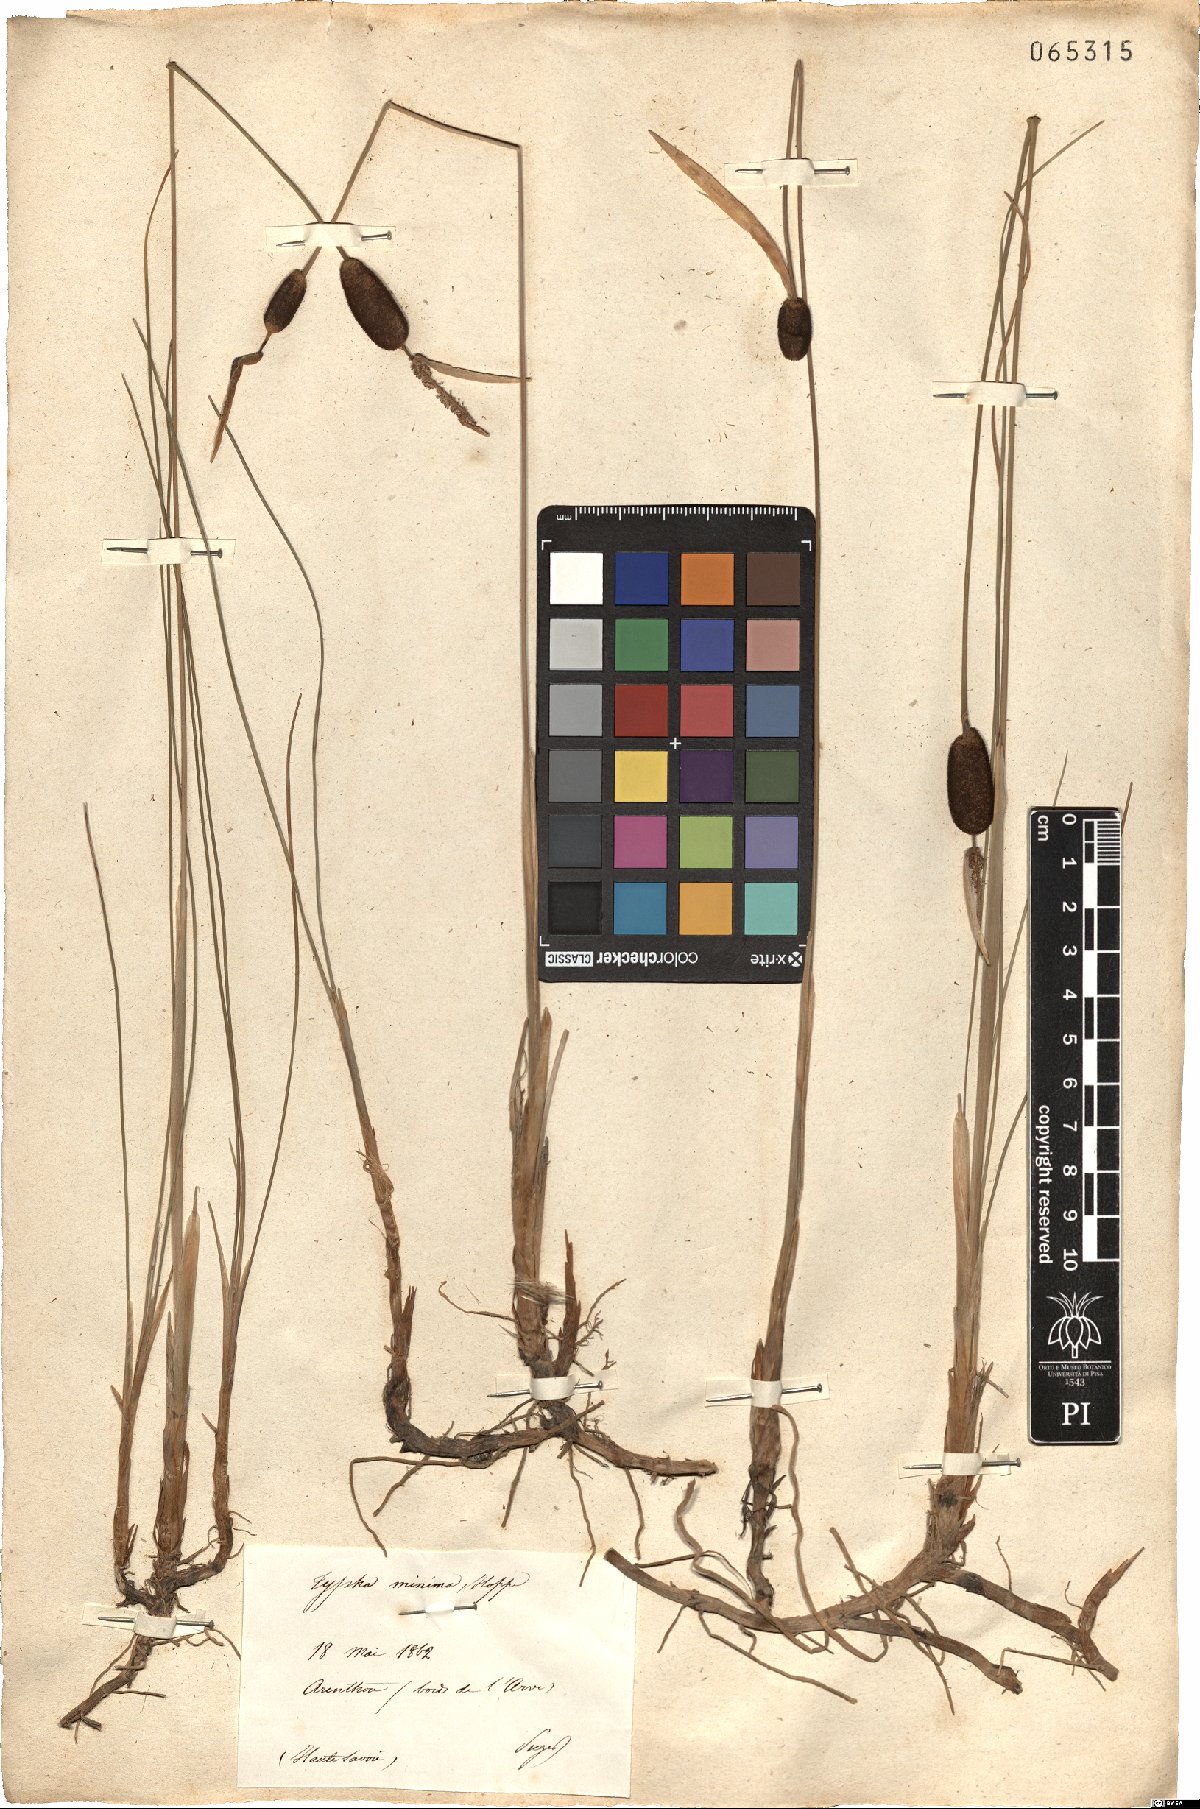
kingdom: Plantae
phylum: Tracheophyta
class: Liliopsida
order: Poales
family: Typhaceae
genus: Typha
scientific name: Typha minima
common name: Dwarf bulrush
